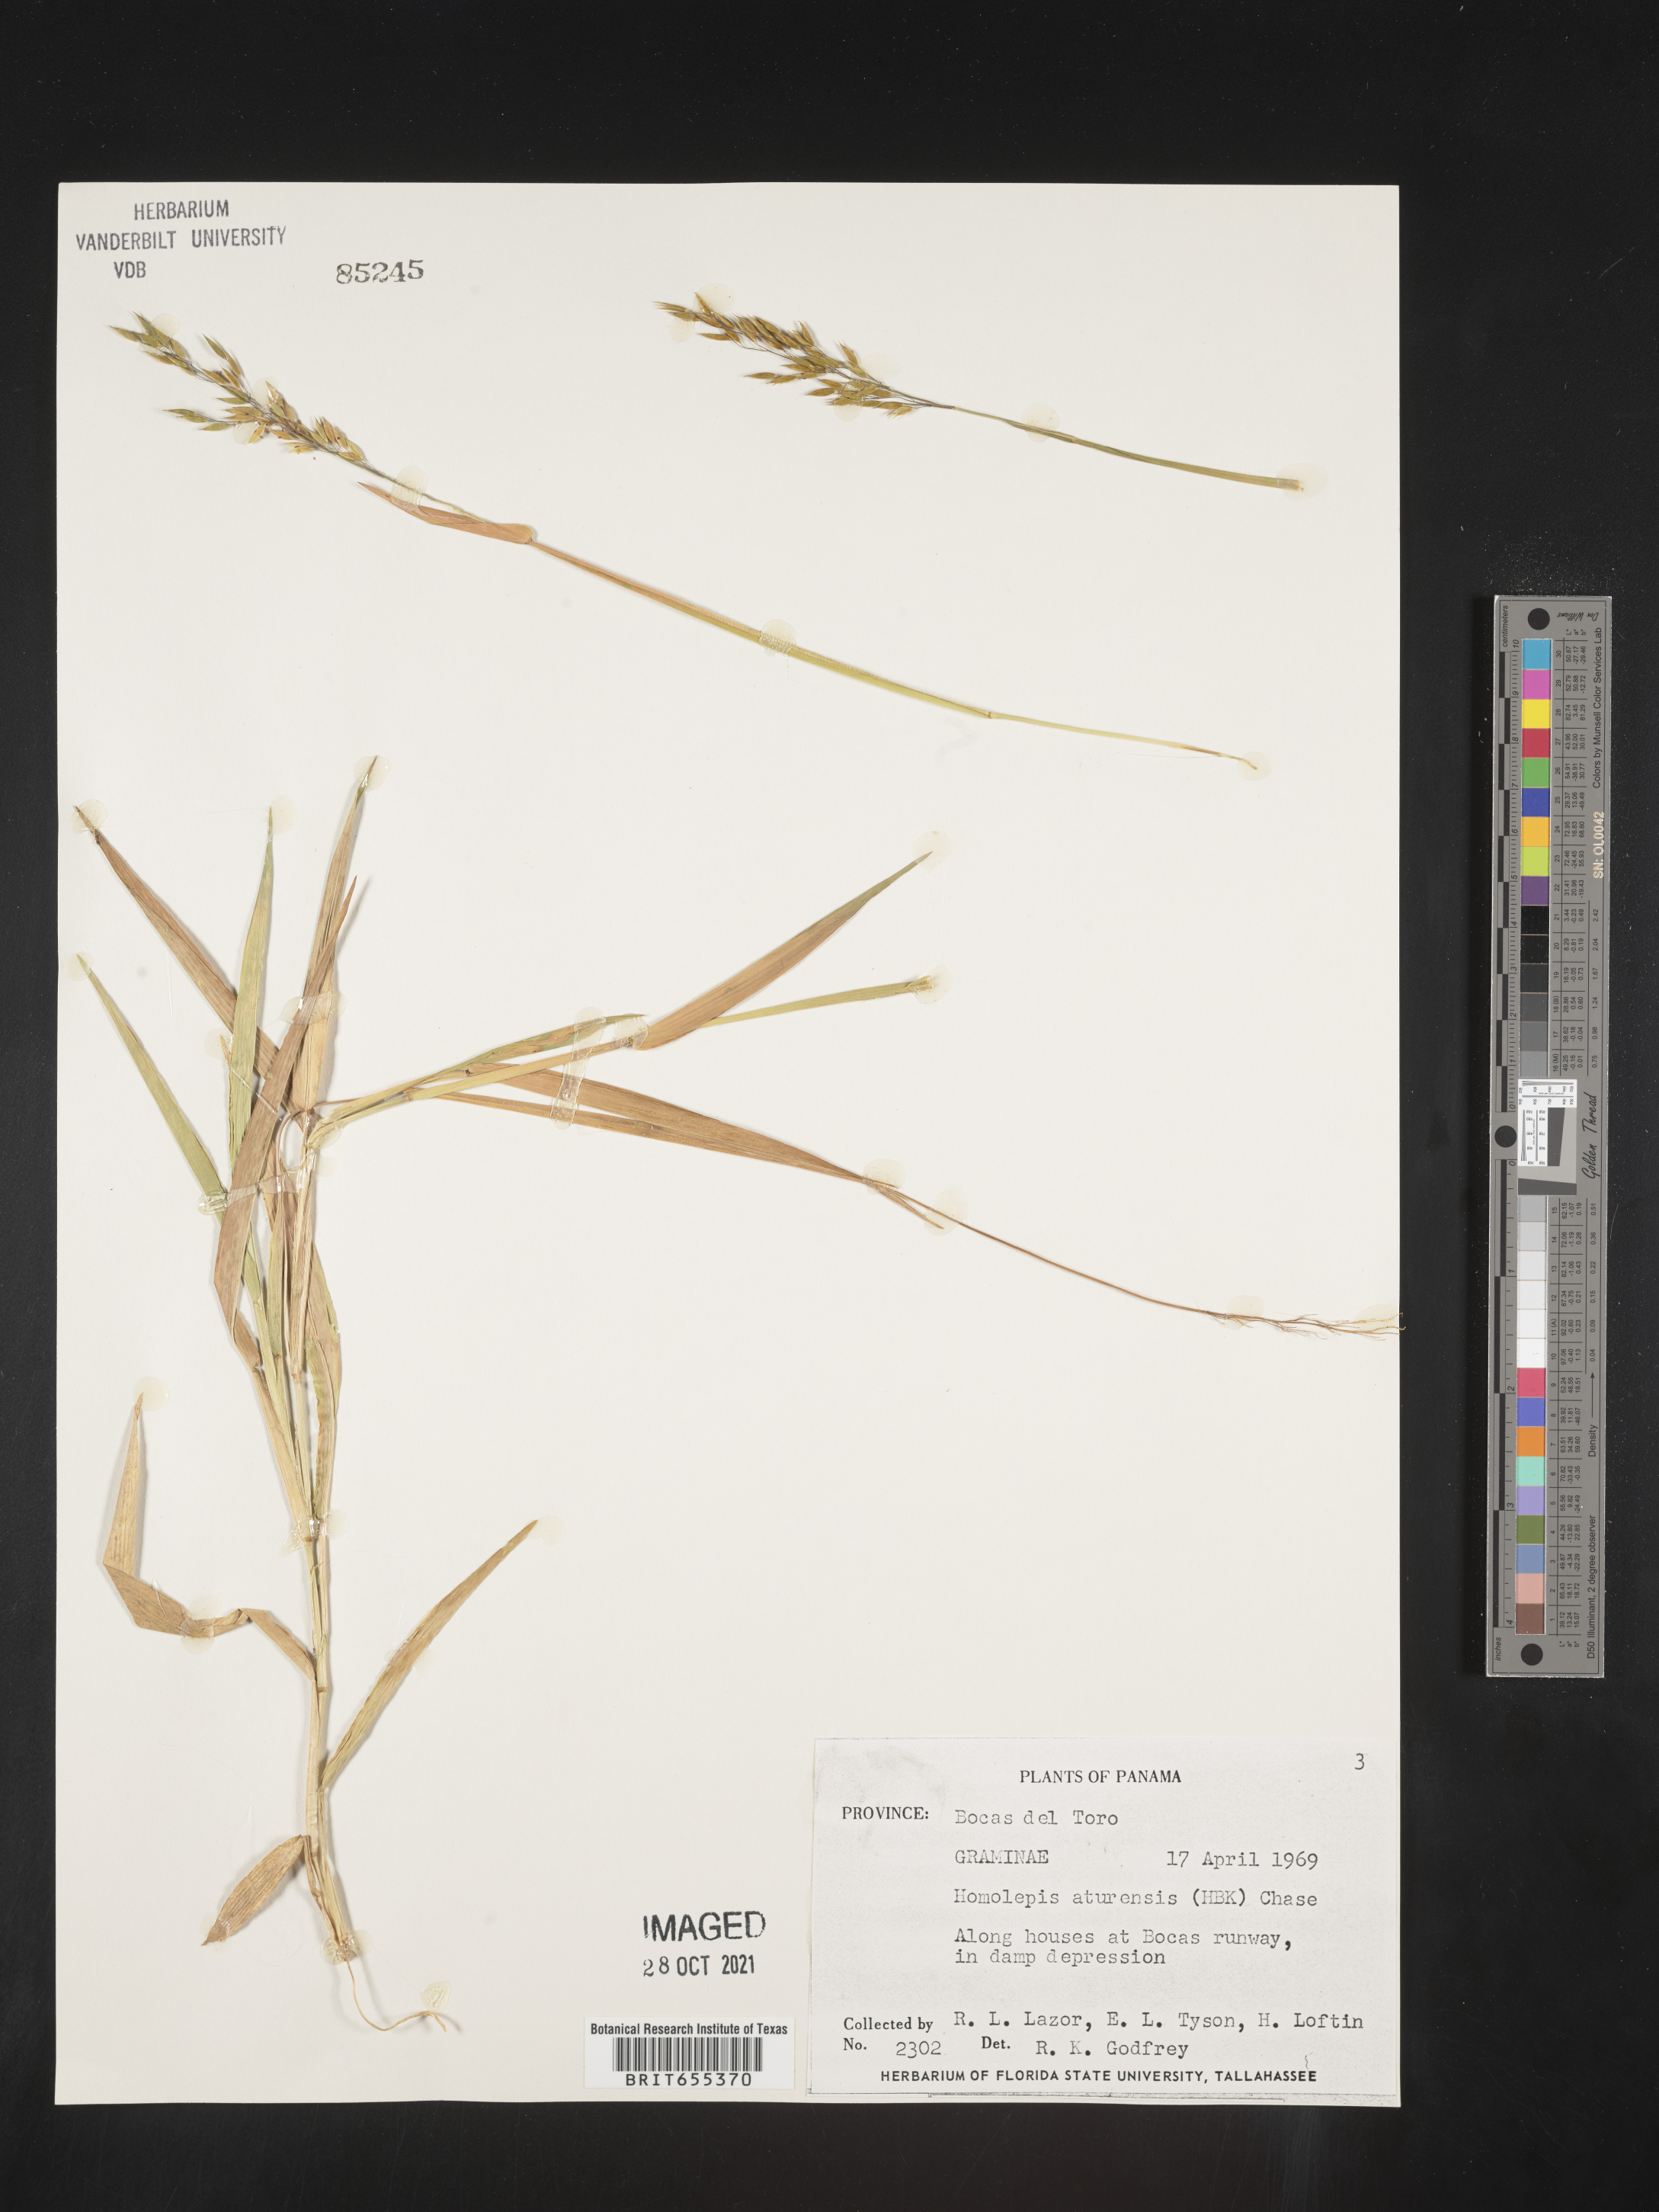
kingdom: Plantae
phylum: Tracheophyta
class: Liliopsida
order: Poales
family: Poaceae
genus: Homolepis
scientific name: Homolepis
